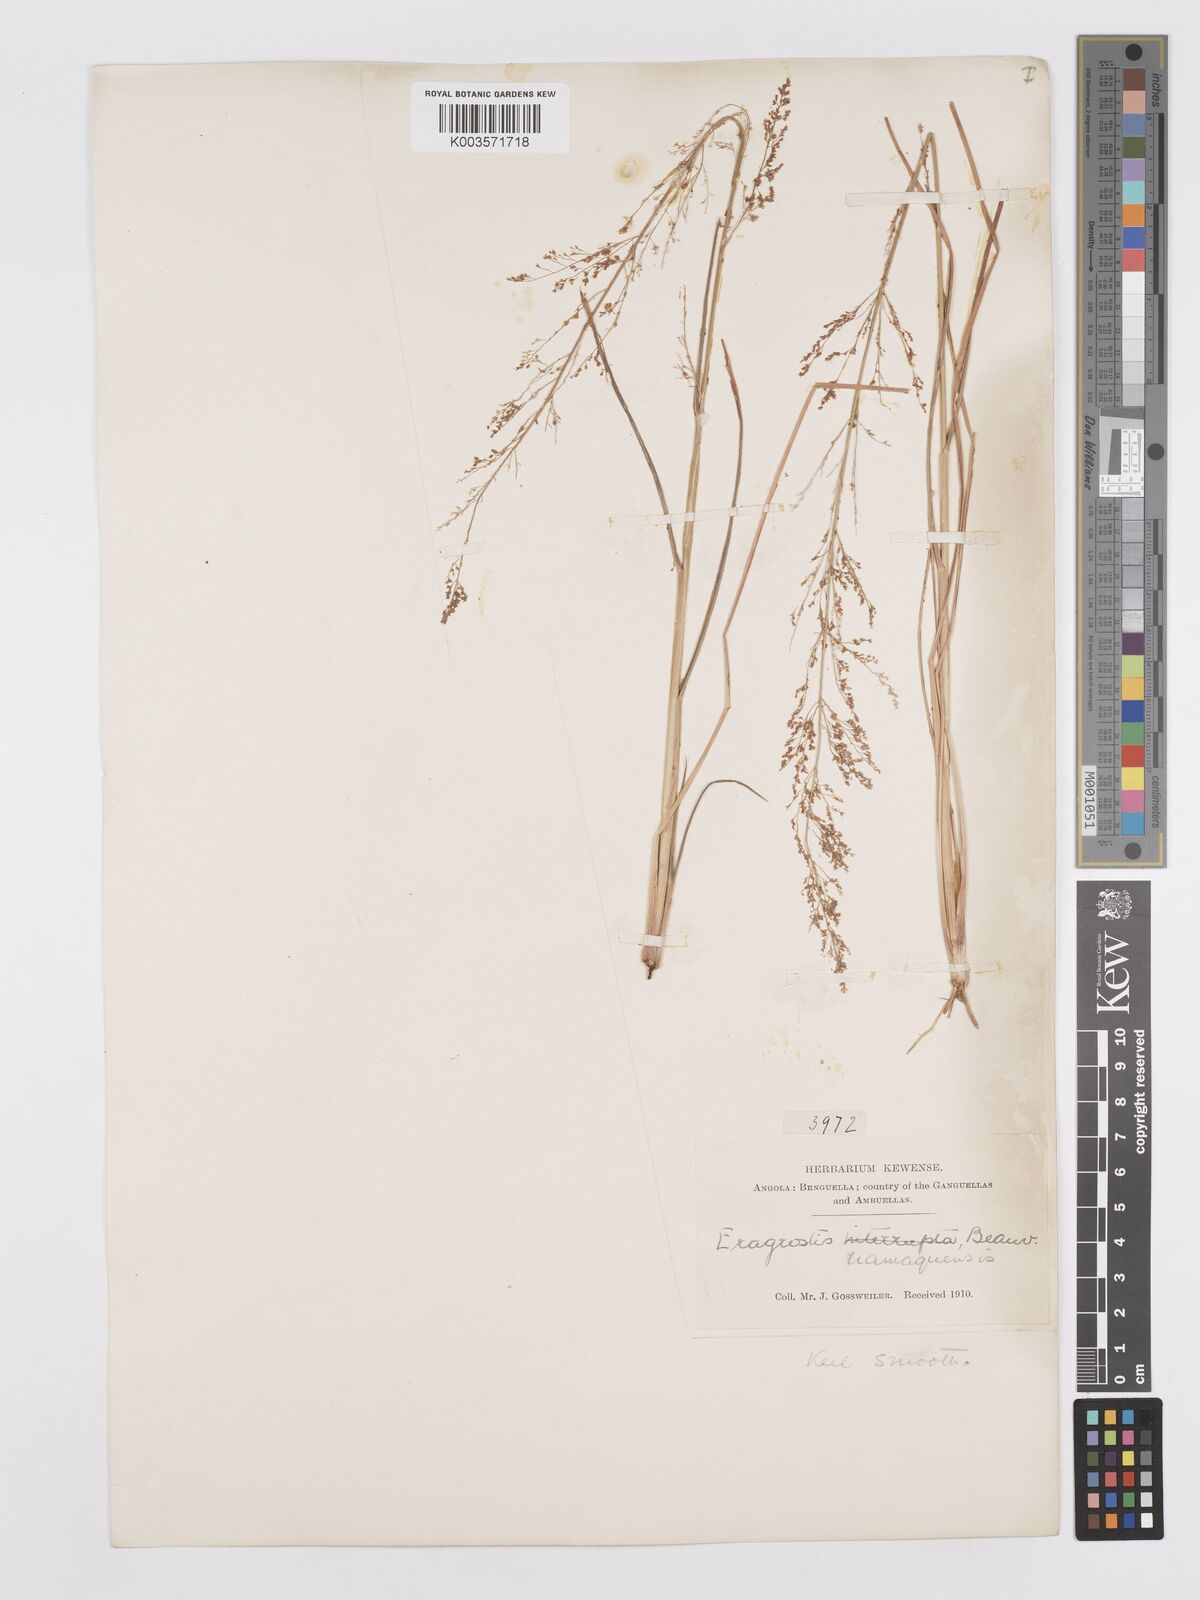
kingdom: Plantae
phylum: Tracheophyta
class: Liliopsida
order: Poales
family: Poaceae
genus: Eragrostis
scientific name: Eragrostis japonica
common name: Pond lovegrass
